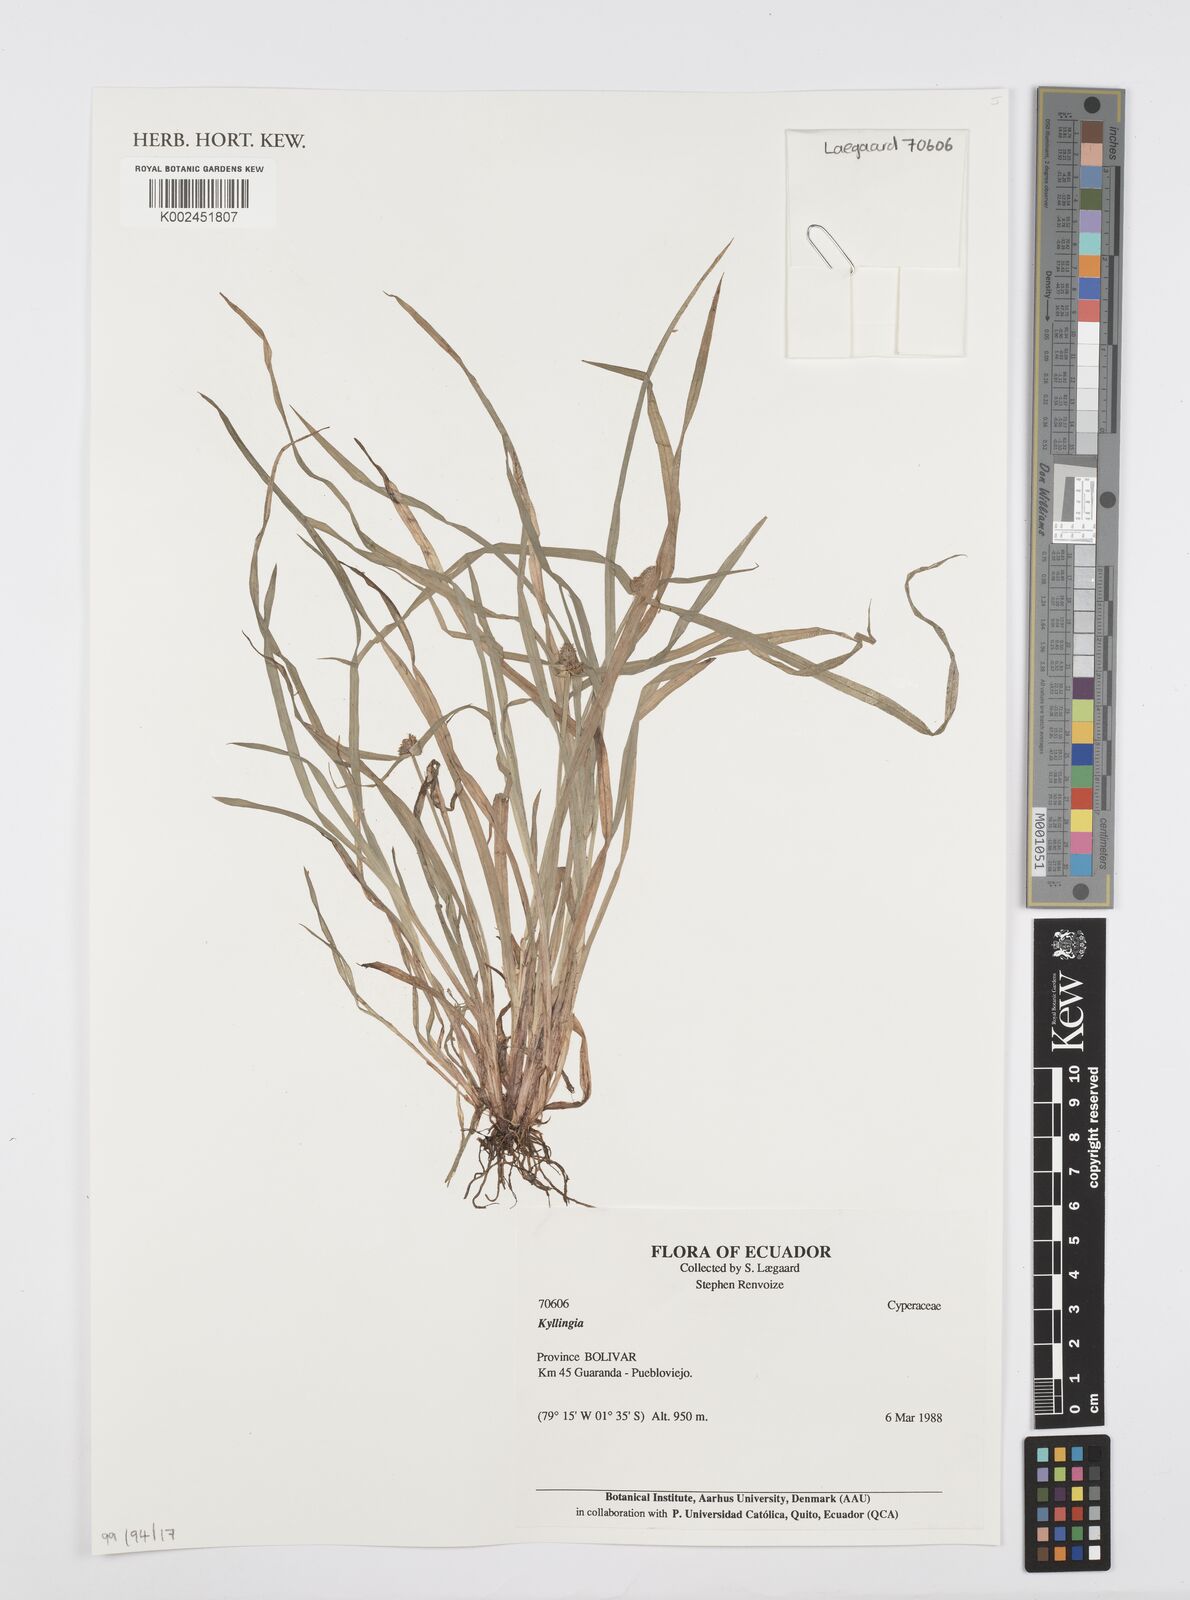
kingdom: Plantae
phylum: Tracheophyta
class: Liliopsida
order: Poales
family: Cyperaceae
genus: Cyperus
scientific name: Cyperus
